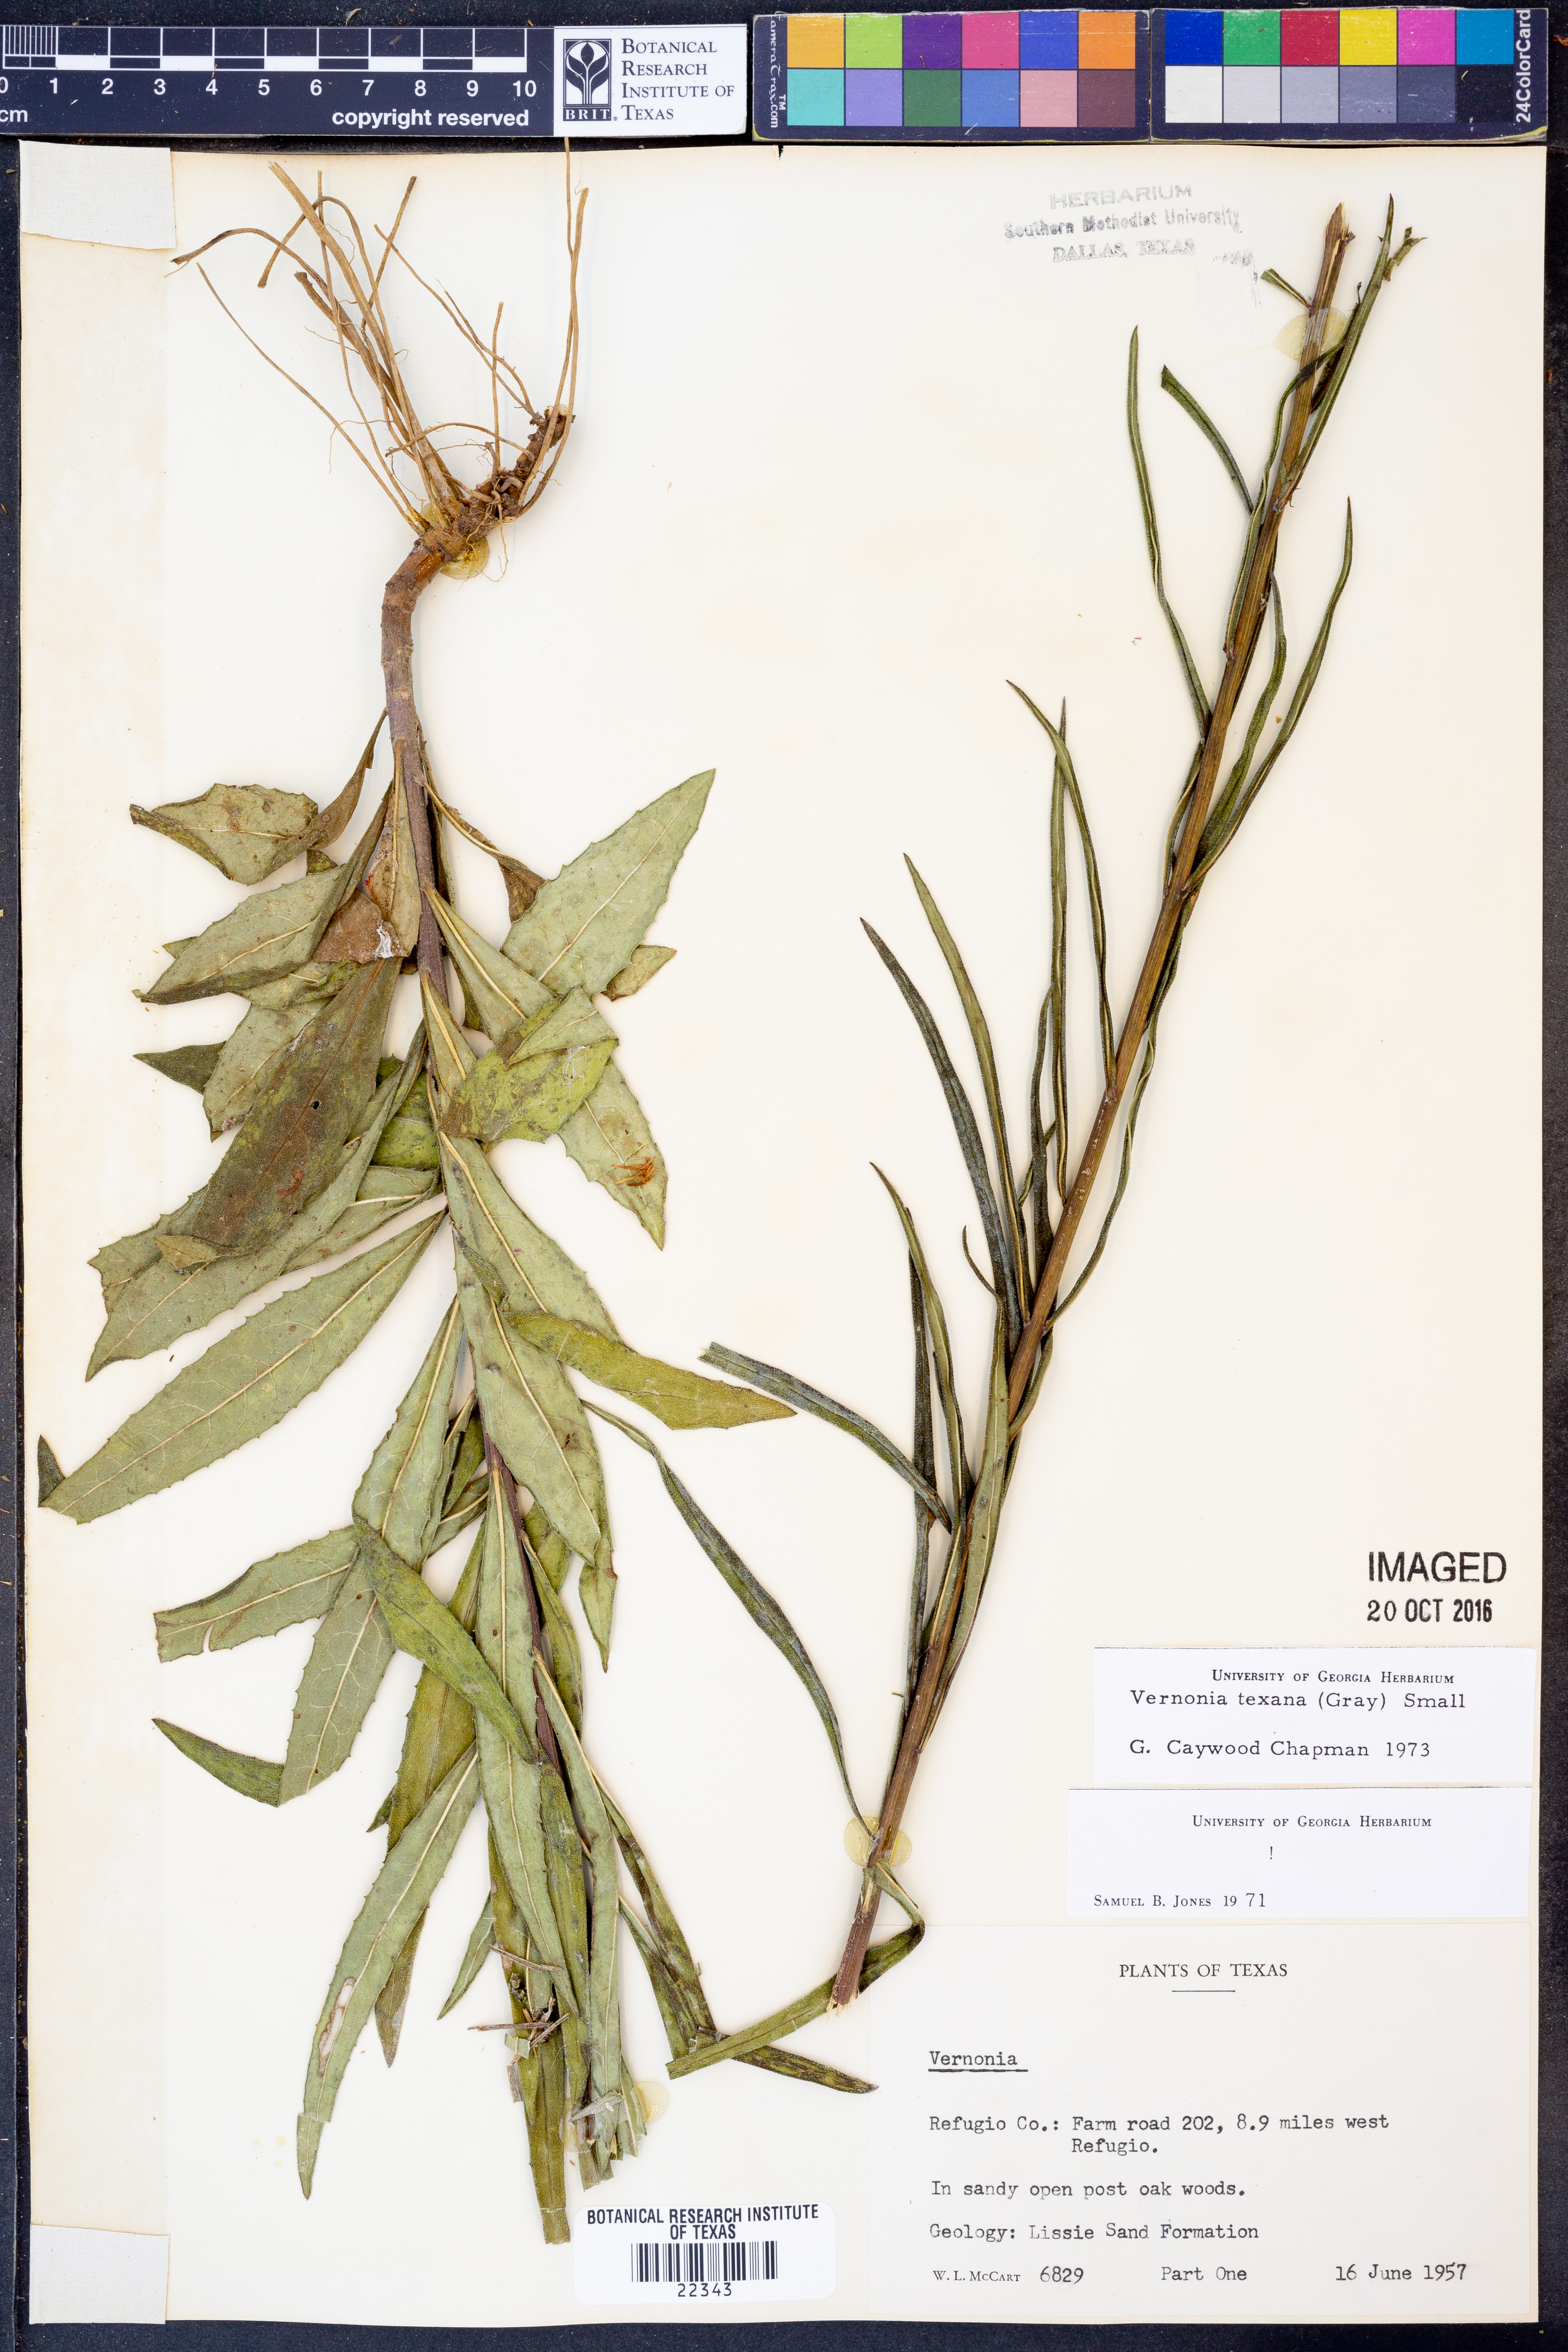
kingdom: Plantae
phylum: Tracheophyta
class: Magnoliopsida
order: Asterales
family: Asteraceae
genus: Vernonia
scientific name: Vernonia texana
